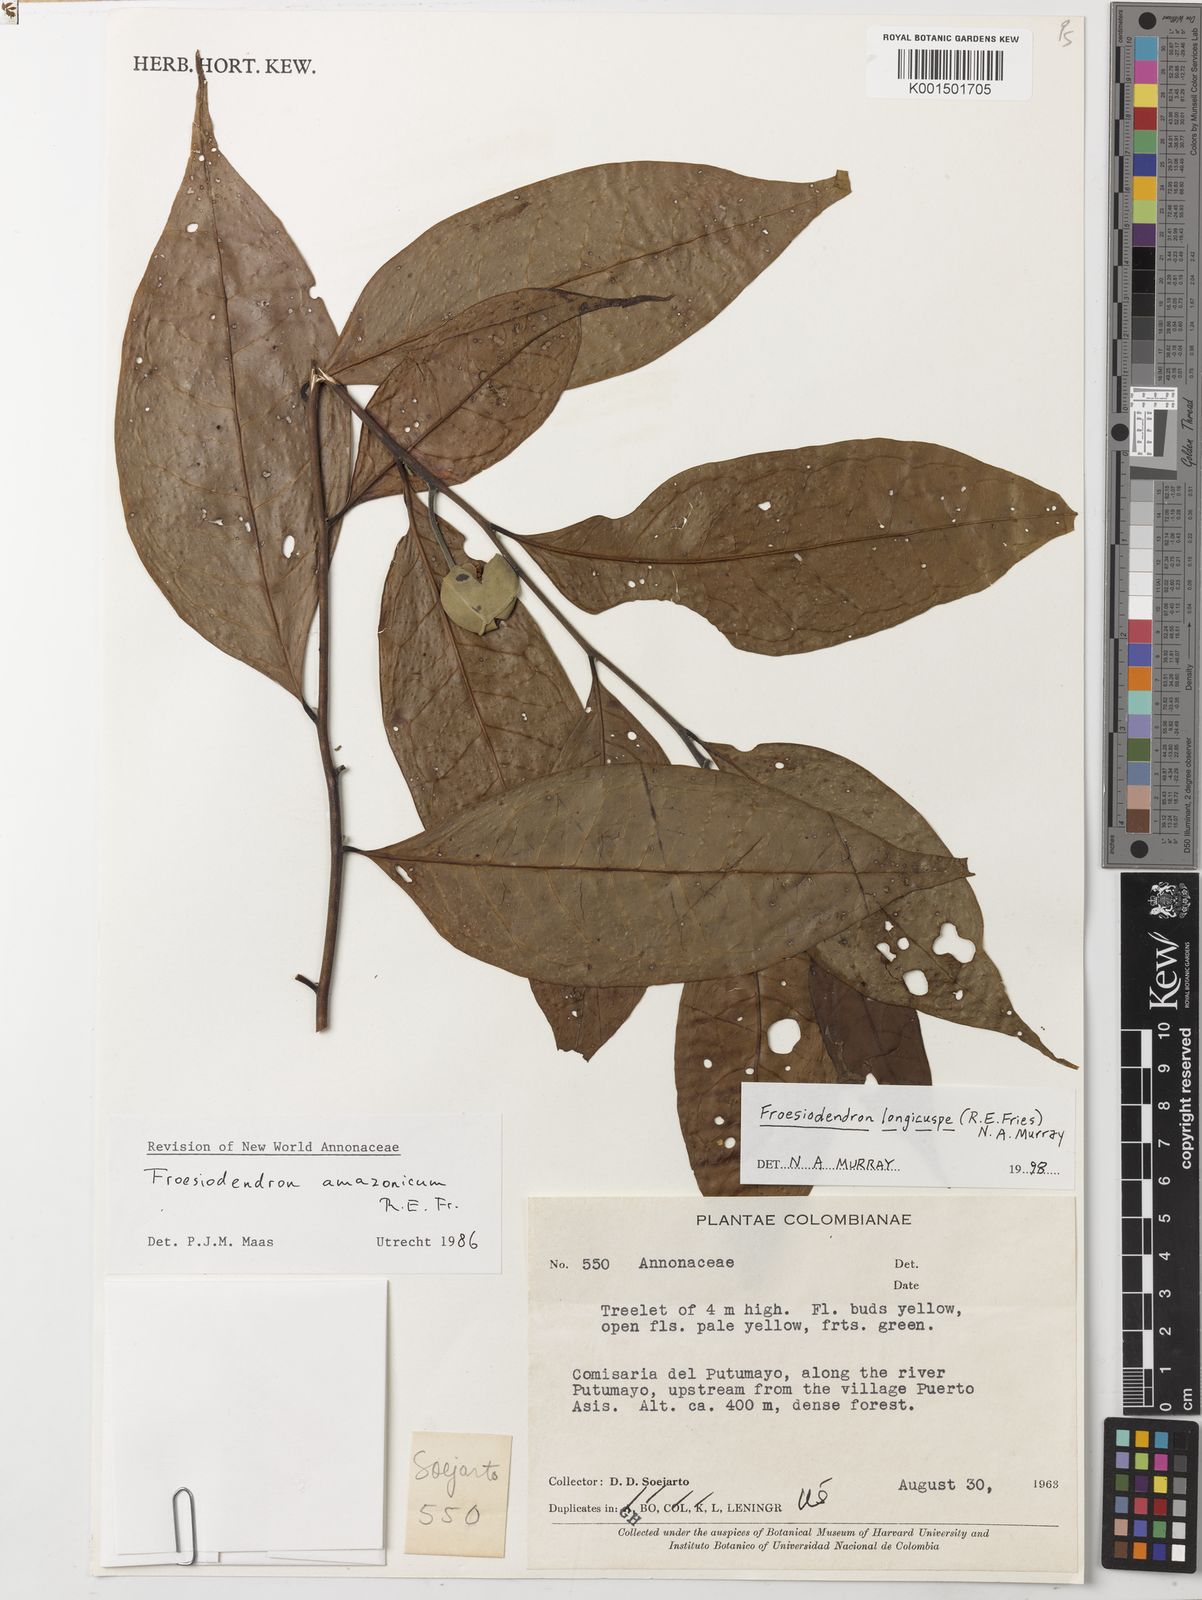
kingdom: Plantae
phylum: Tracheophyta
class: Magnoliopsida
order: Magnoliales
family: Annonaceae
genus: Froesiodendron
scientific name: Froesiodendron longicuspe
